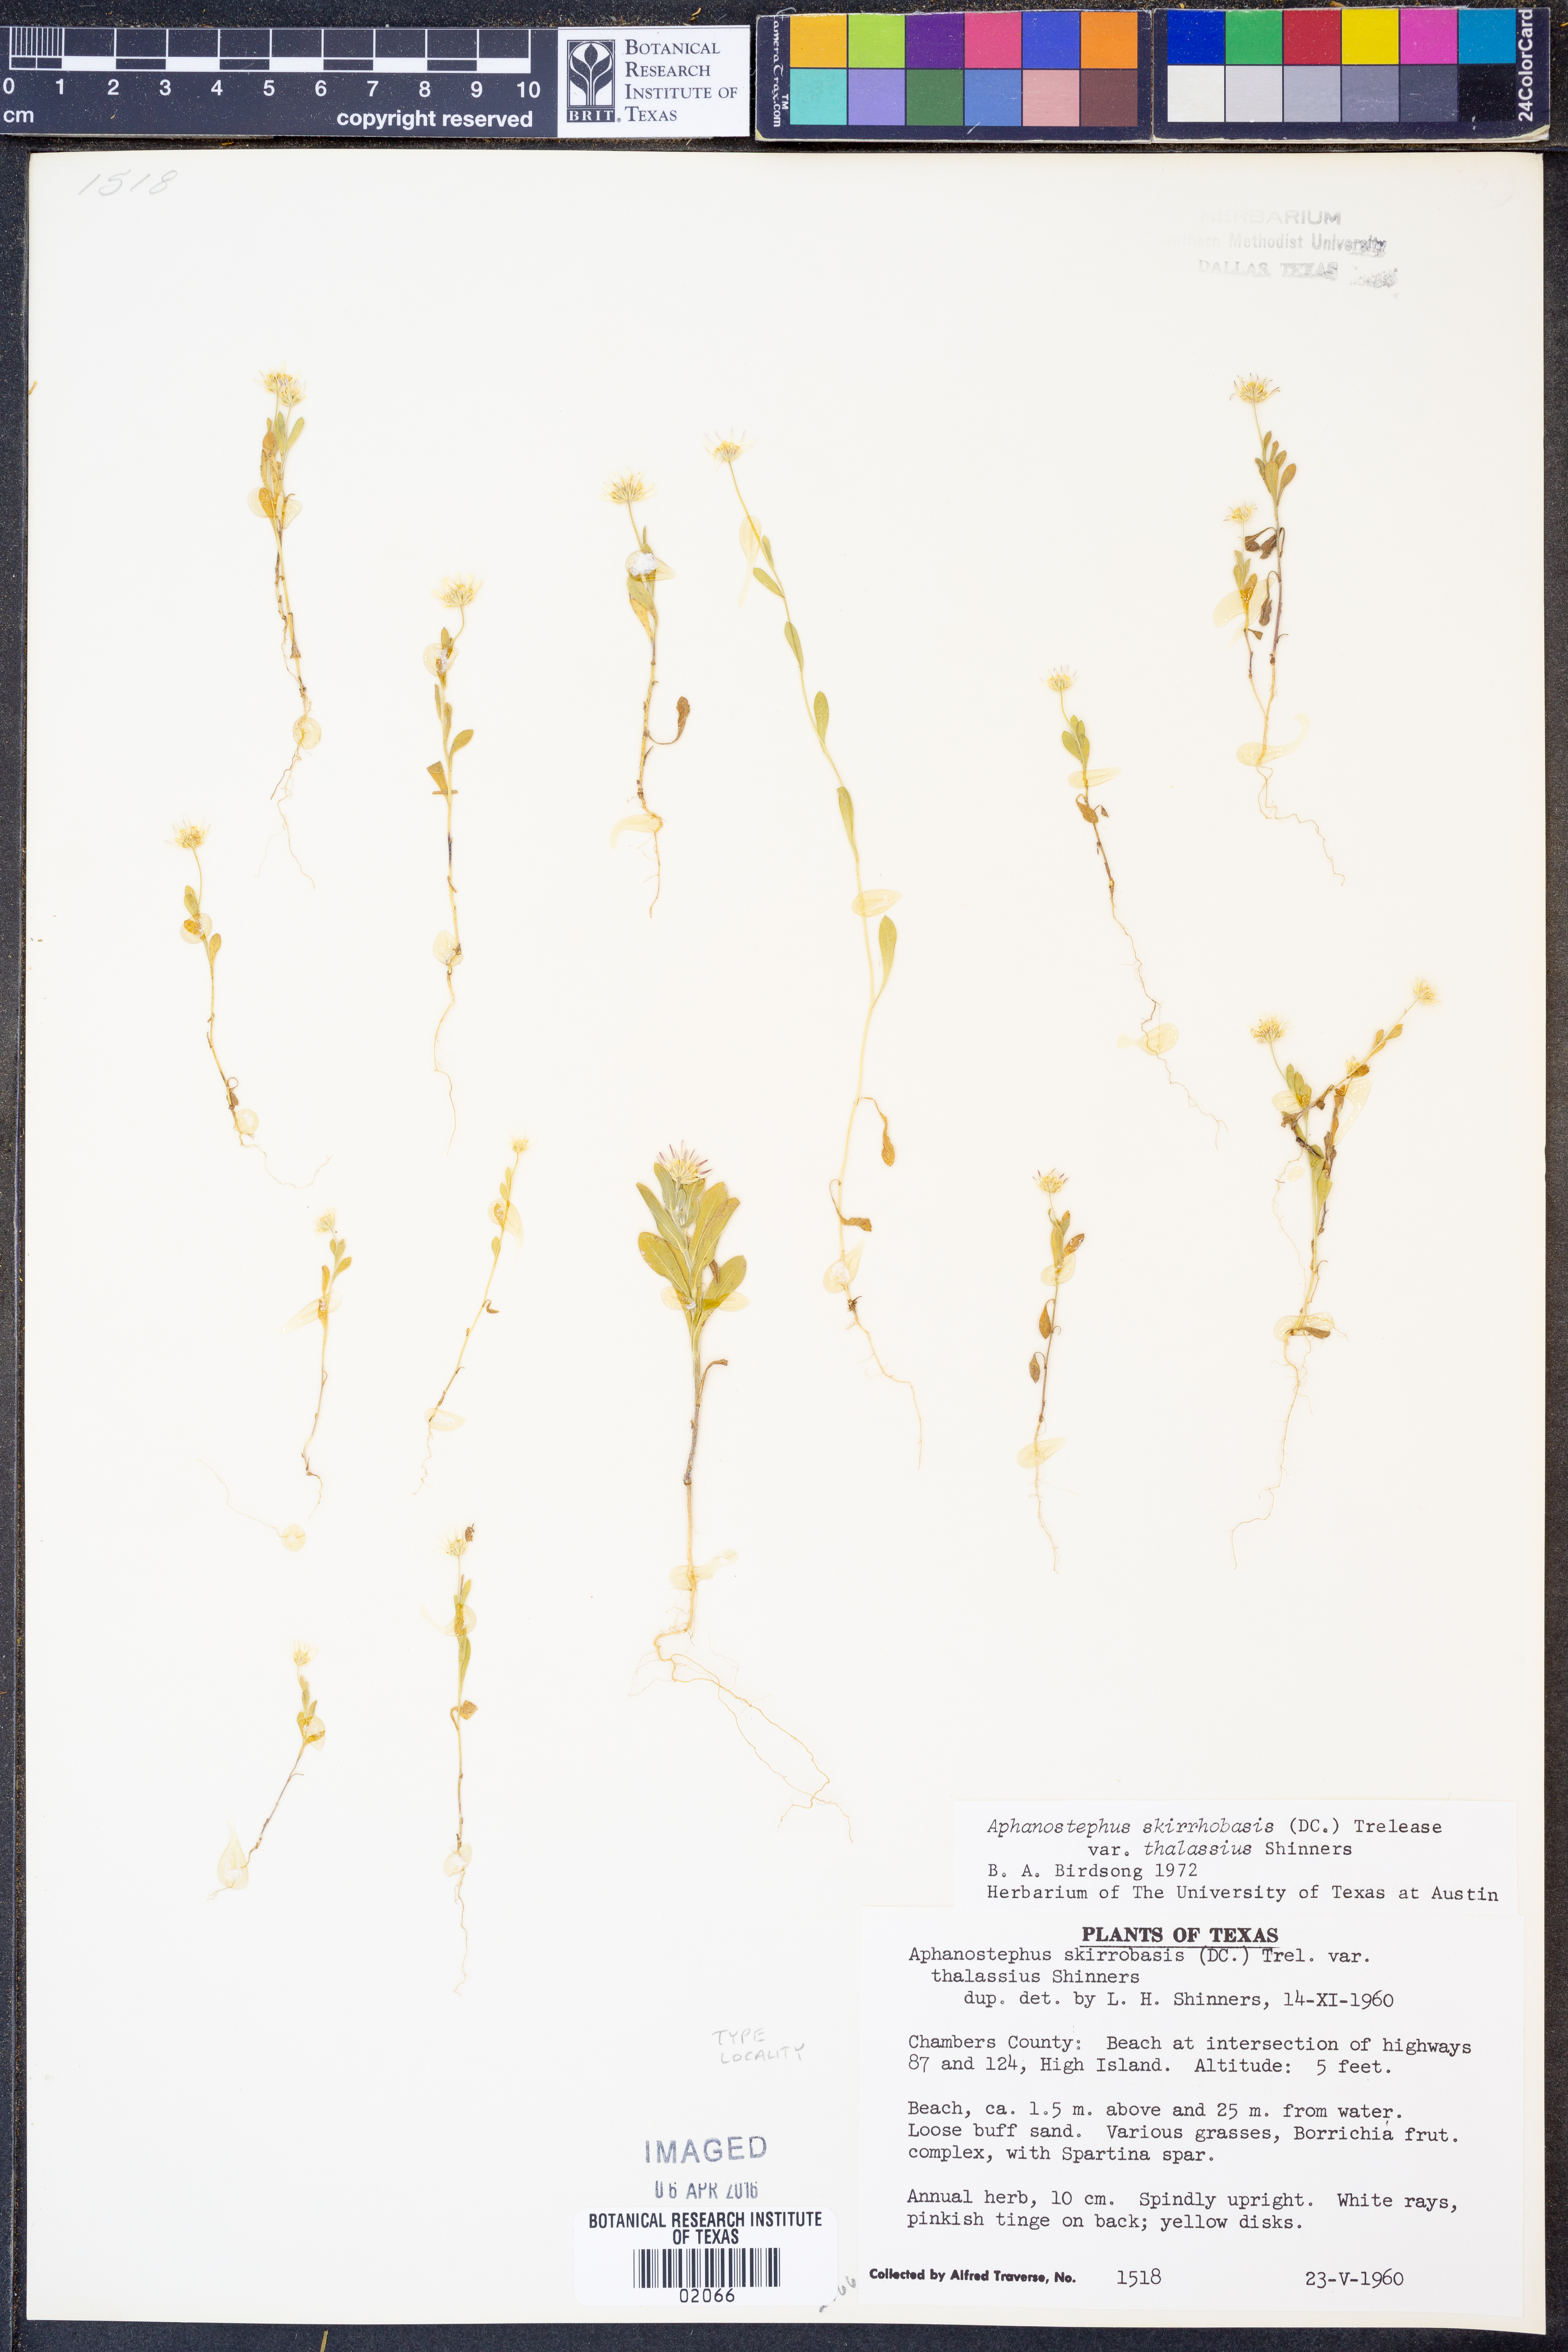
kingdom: Plantae
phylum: Tracheophyta
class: Magnoliopsida
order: Asterales
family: Asteraceae
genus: Aphanostephus
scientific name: Aphanostephus skirrhobasis
